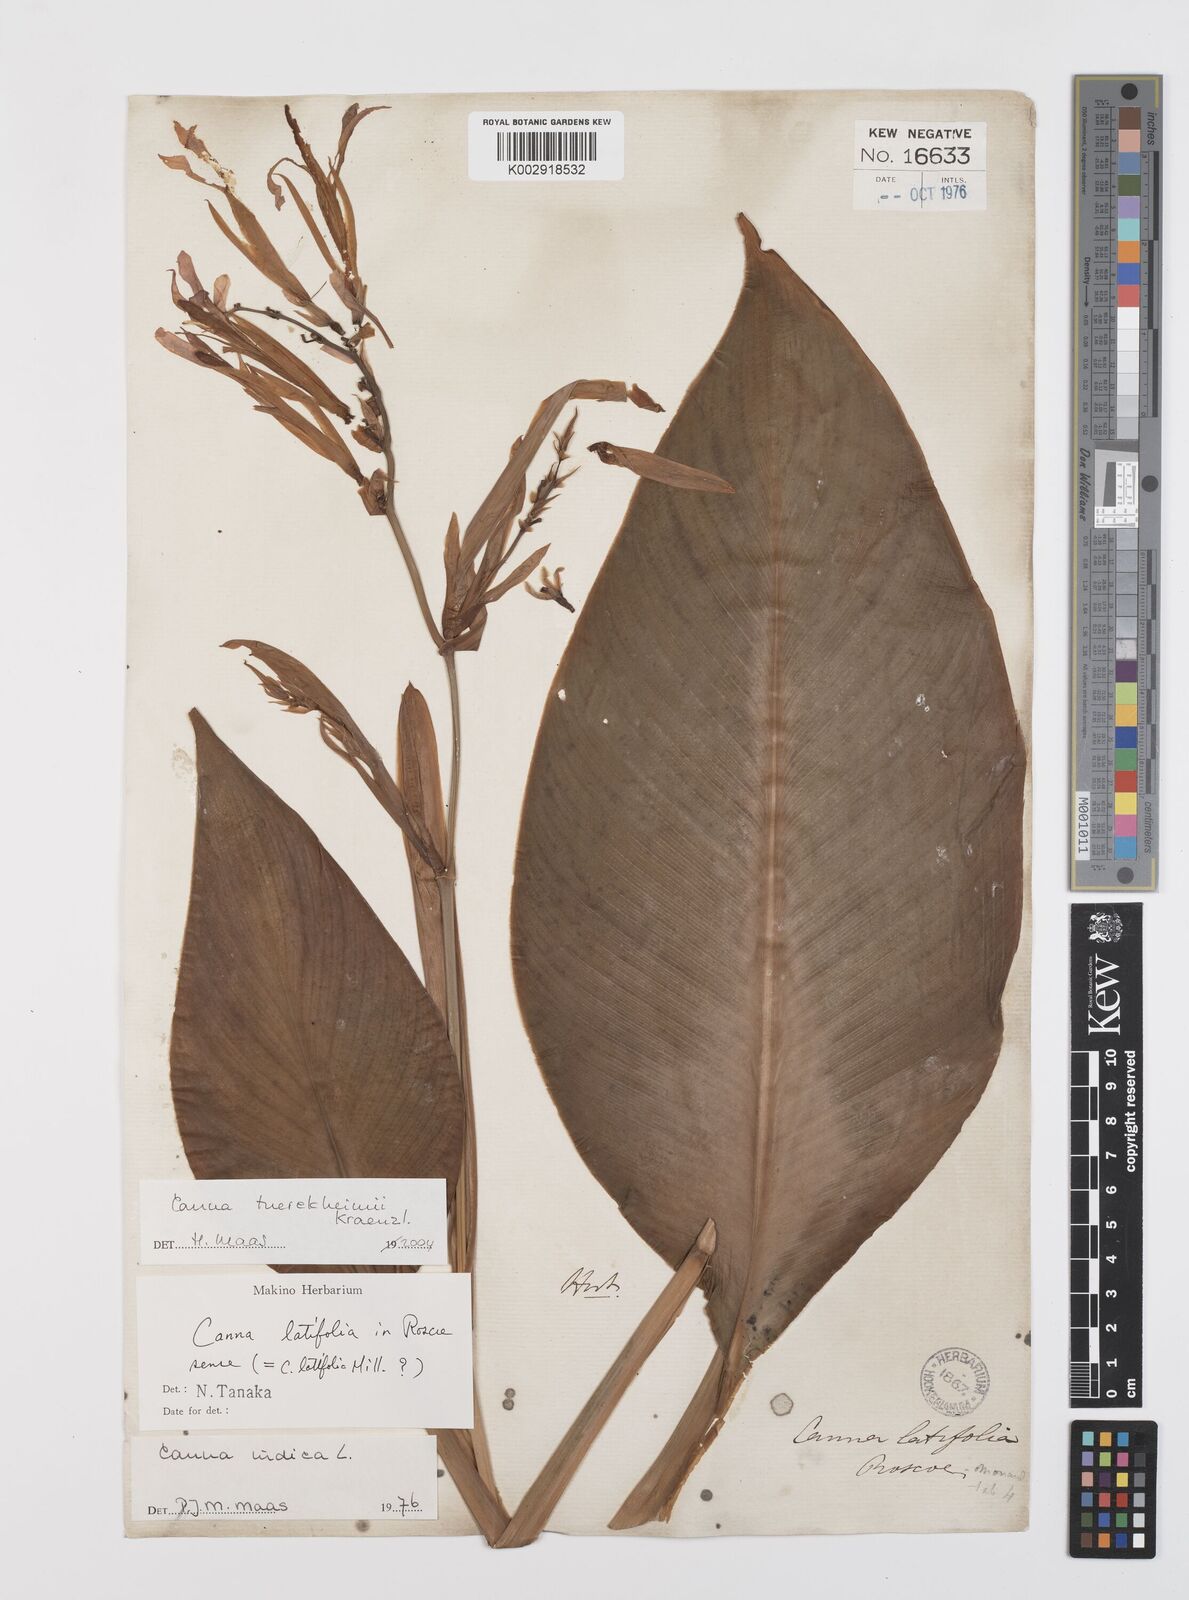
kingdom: Plantae
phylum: Tracheophyta
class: Liliopsida
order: Zingiberales
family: Cannaceae
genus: Canna
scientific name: Canna tuerckheimii
